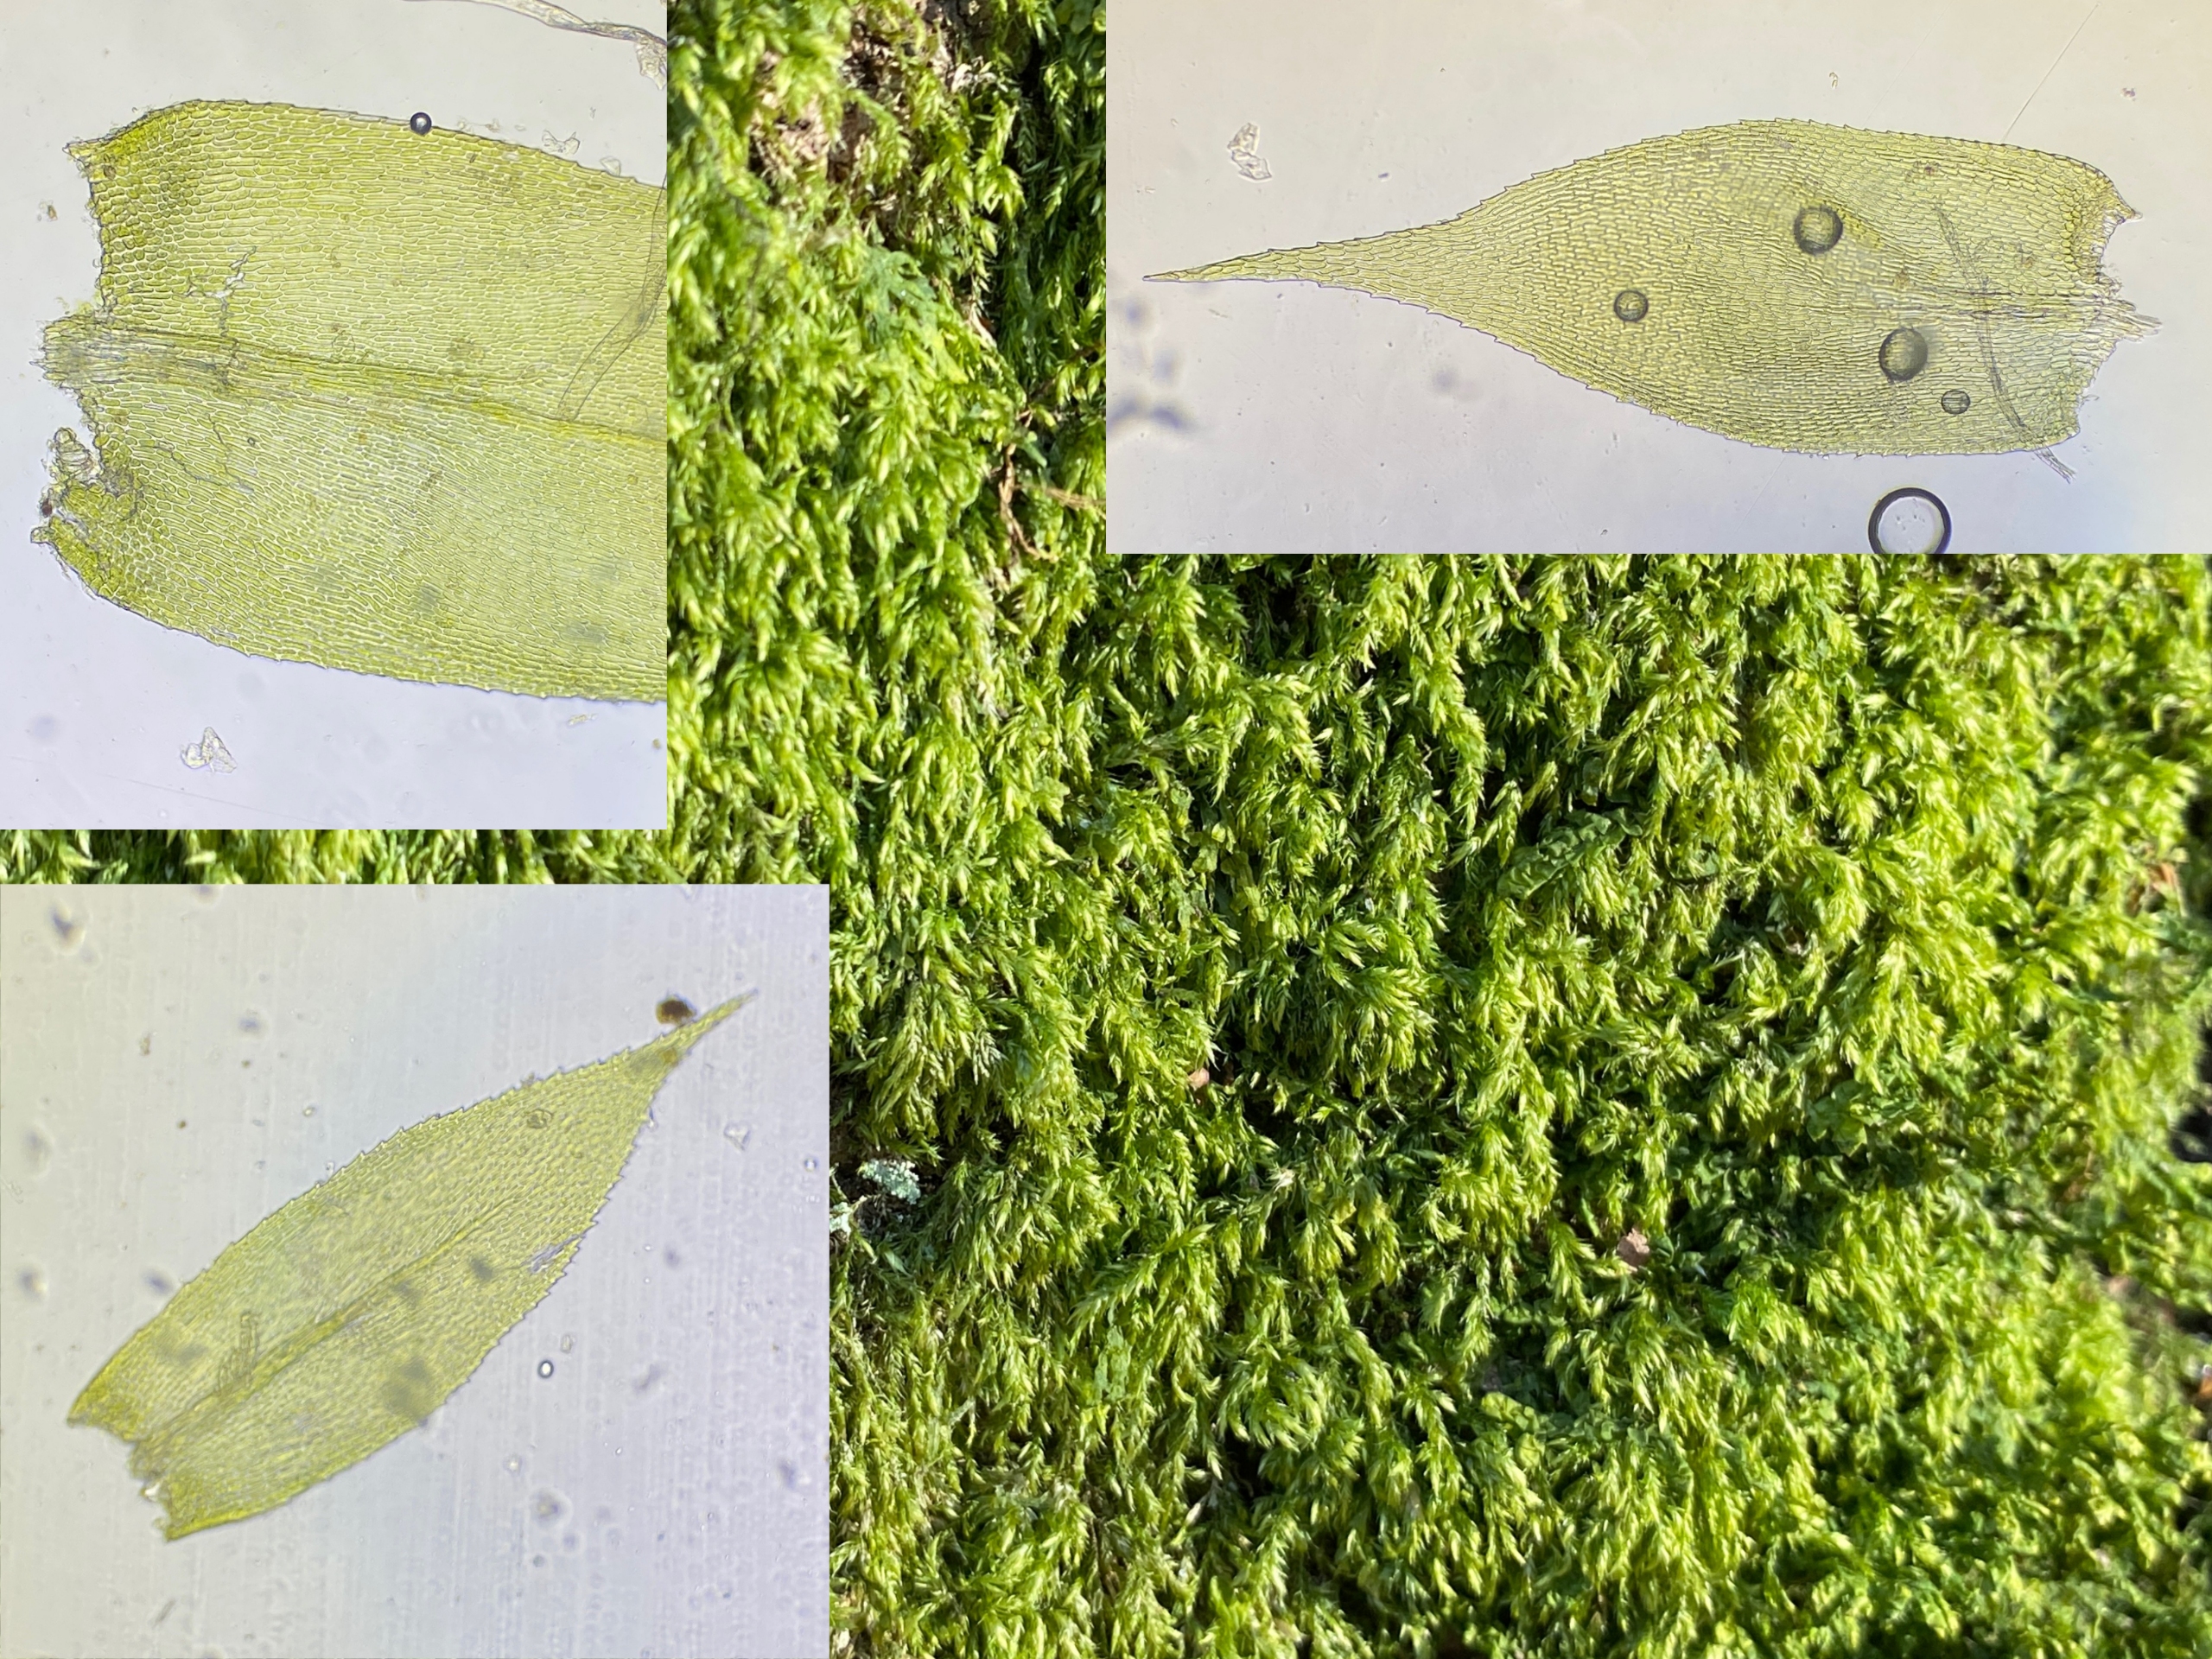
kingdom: Plantae
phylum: Bryophyta
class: Bryopsida
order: Hypnales
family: Lembophyllaceae
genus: Pseudisothecium
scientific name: Pseudisothecium myosuroides
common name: Slank stammemos
